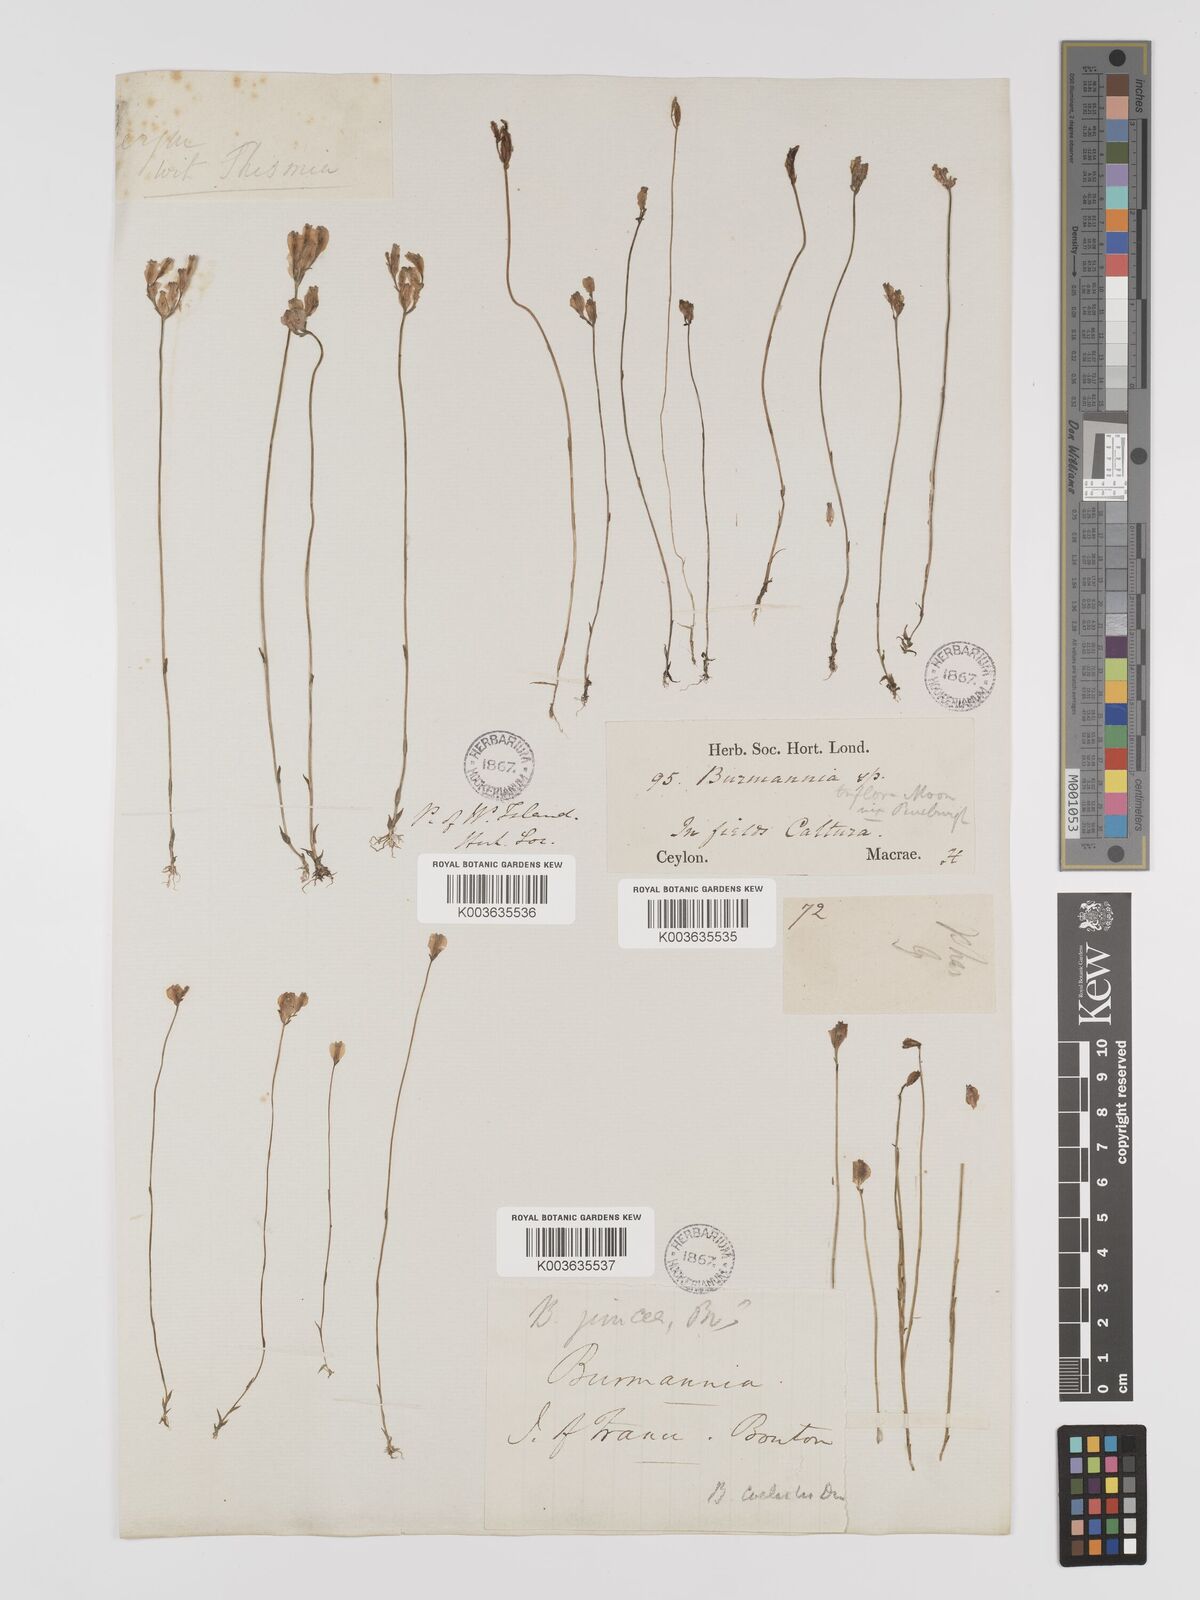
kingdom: Plantae
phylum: Tracheophyta
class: Liliopsida
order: Dioscoreales
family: Burmanniaceae
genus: Burmannia
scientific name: Burmannia coelestis
